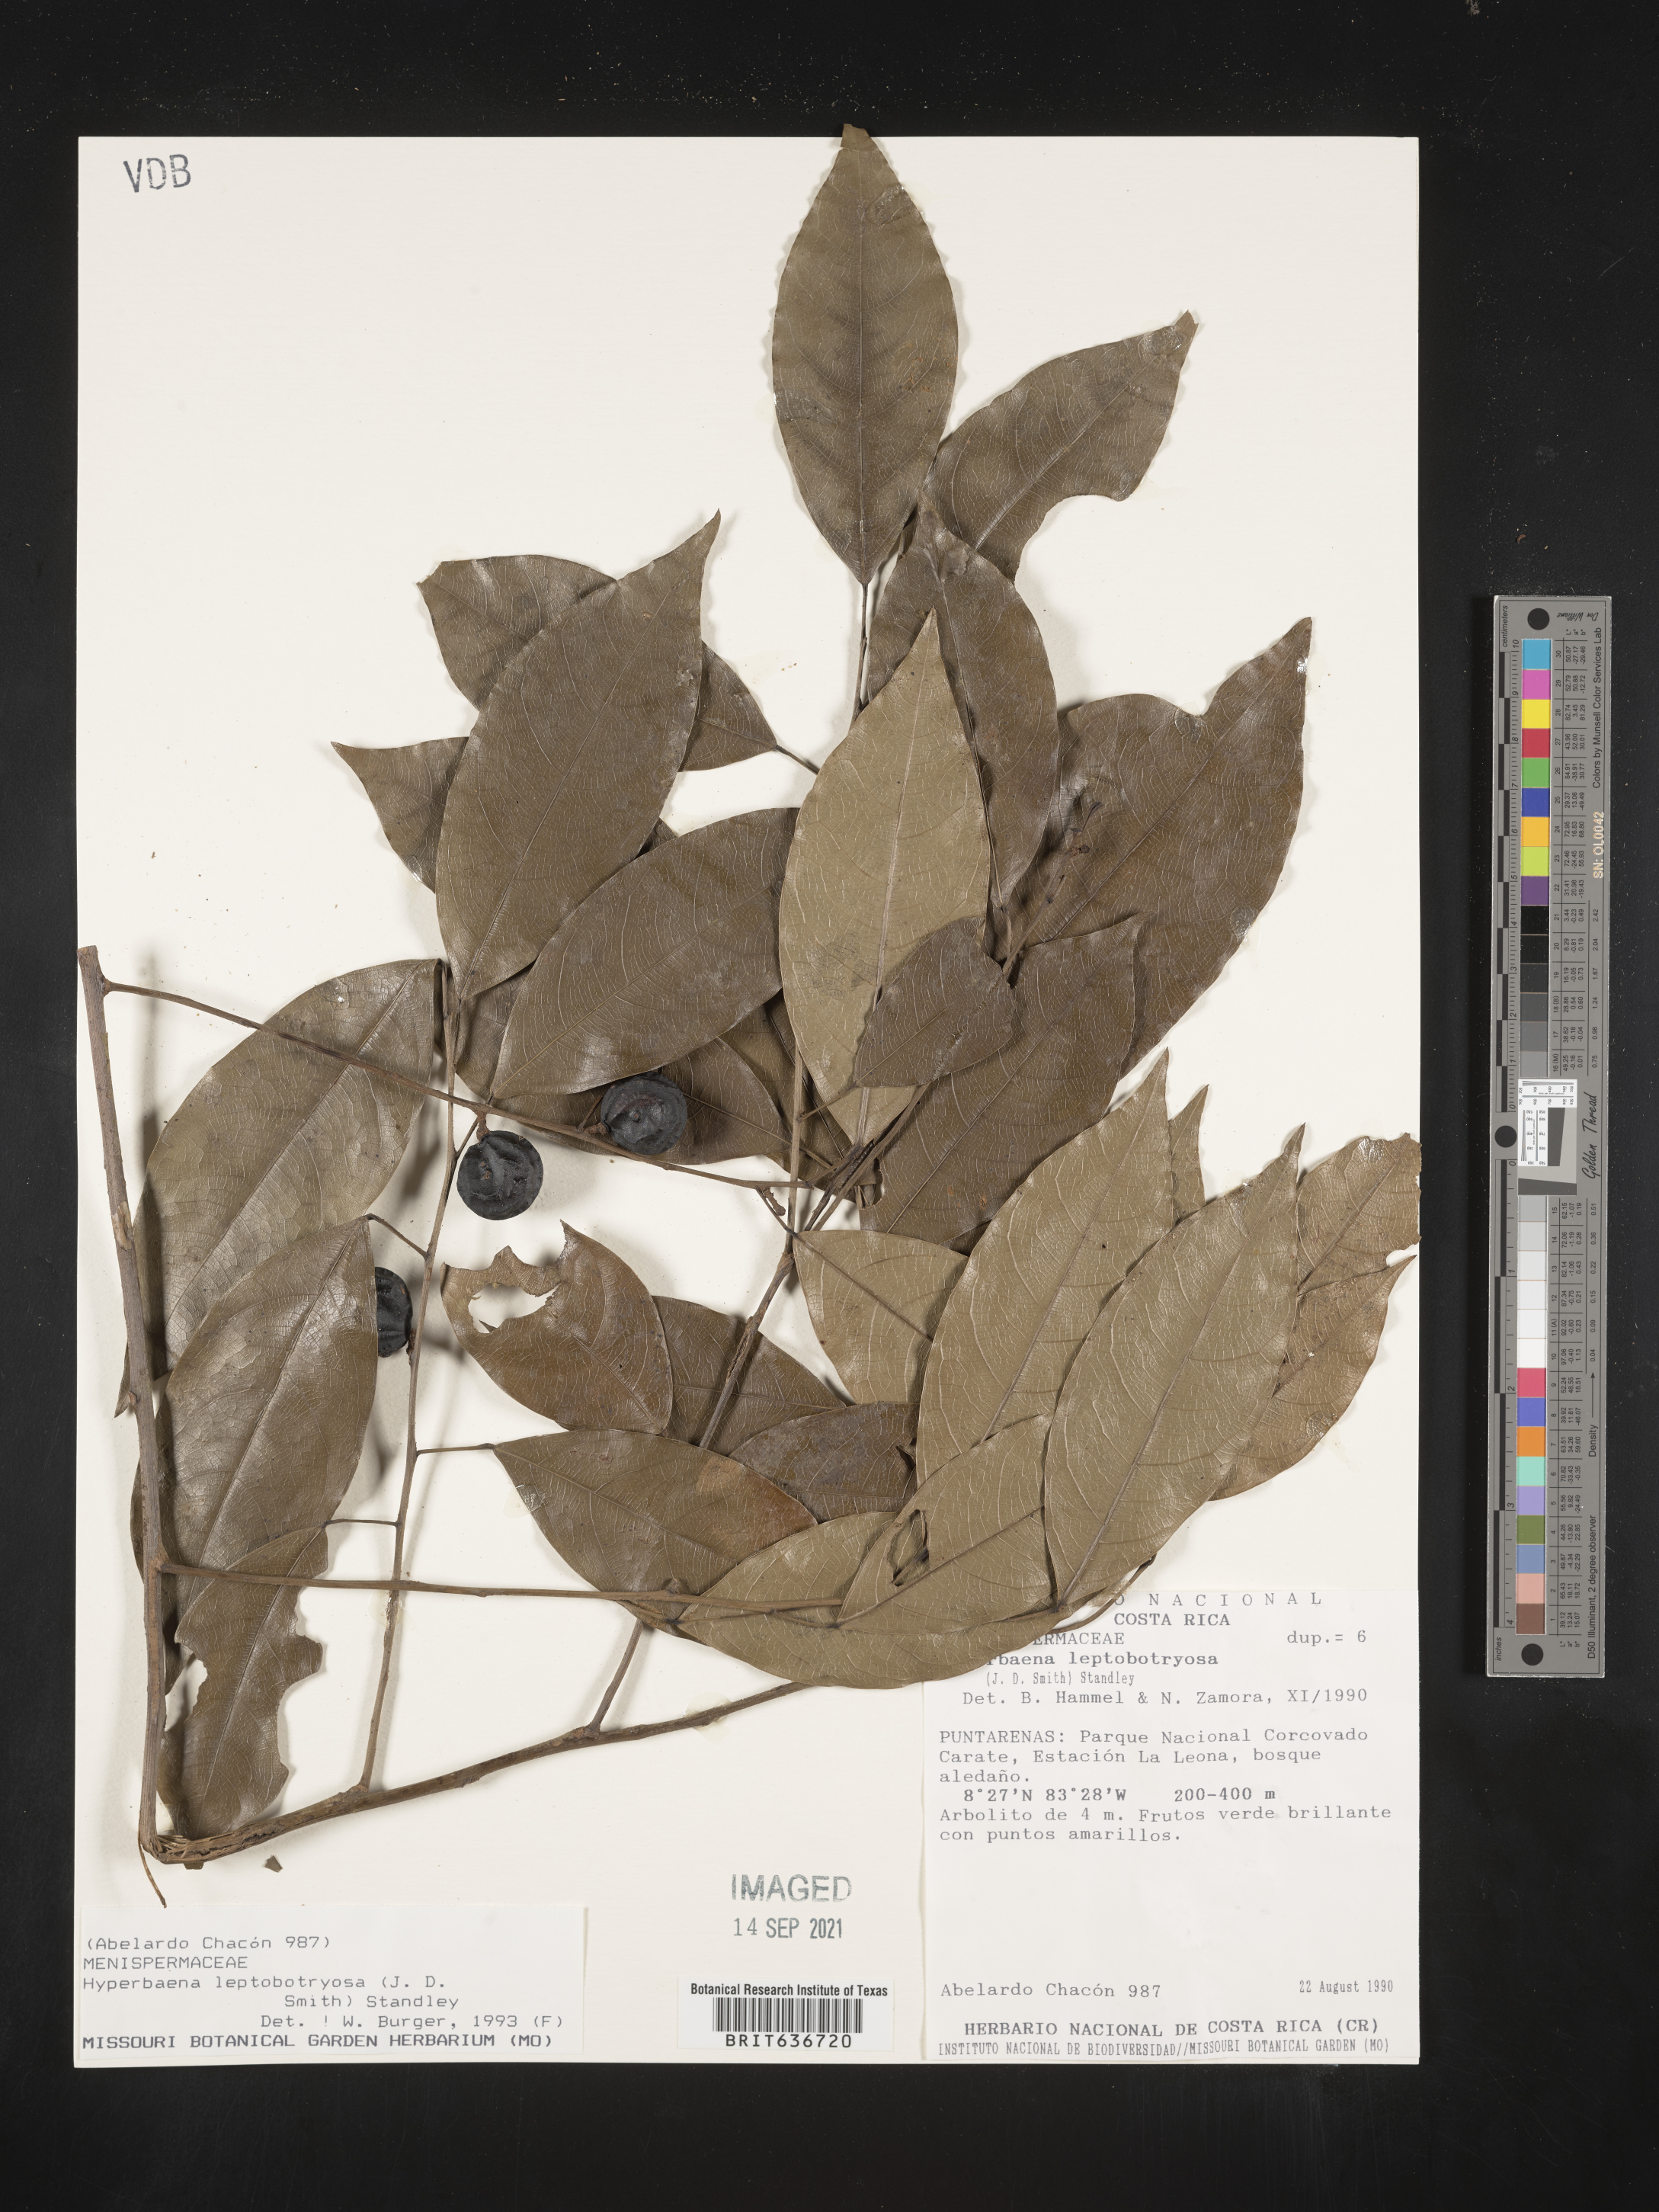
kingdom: Plantae
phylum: Tracheophyta
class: Magnoliopsida
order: Ranunculales
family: Menispermaceae
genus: Hyperbaena
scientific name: Hyperbaena
